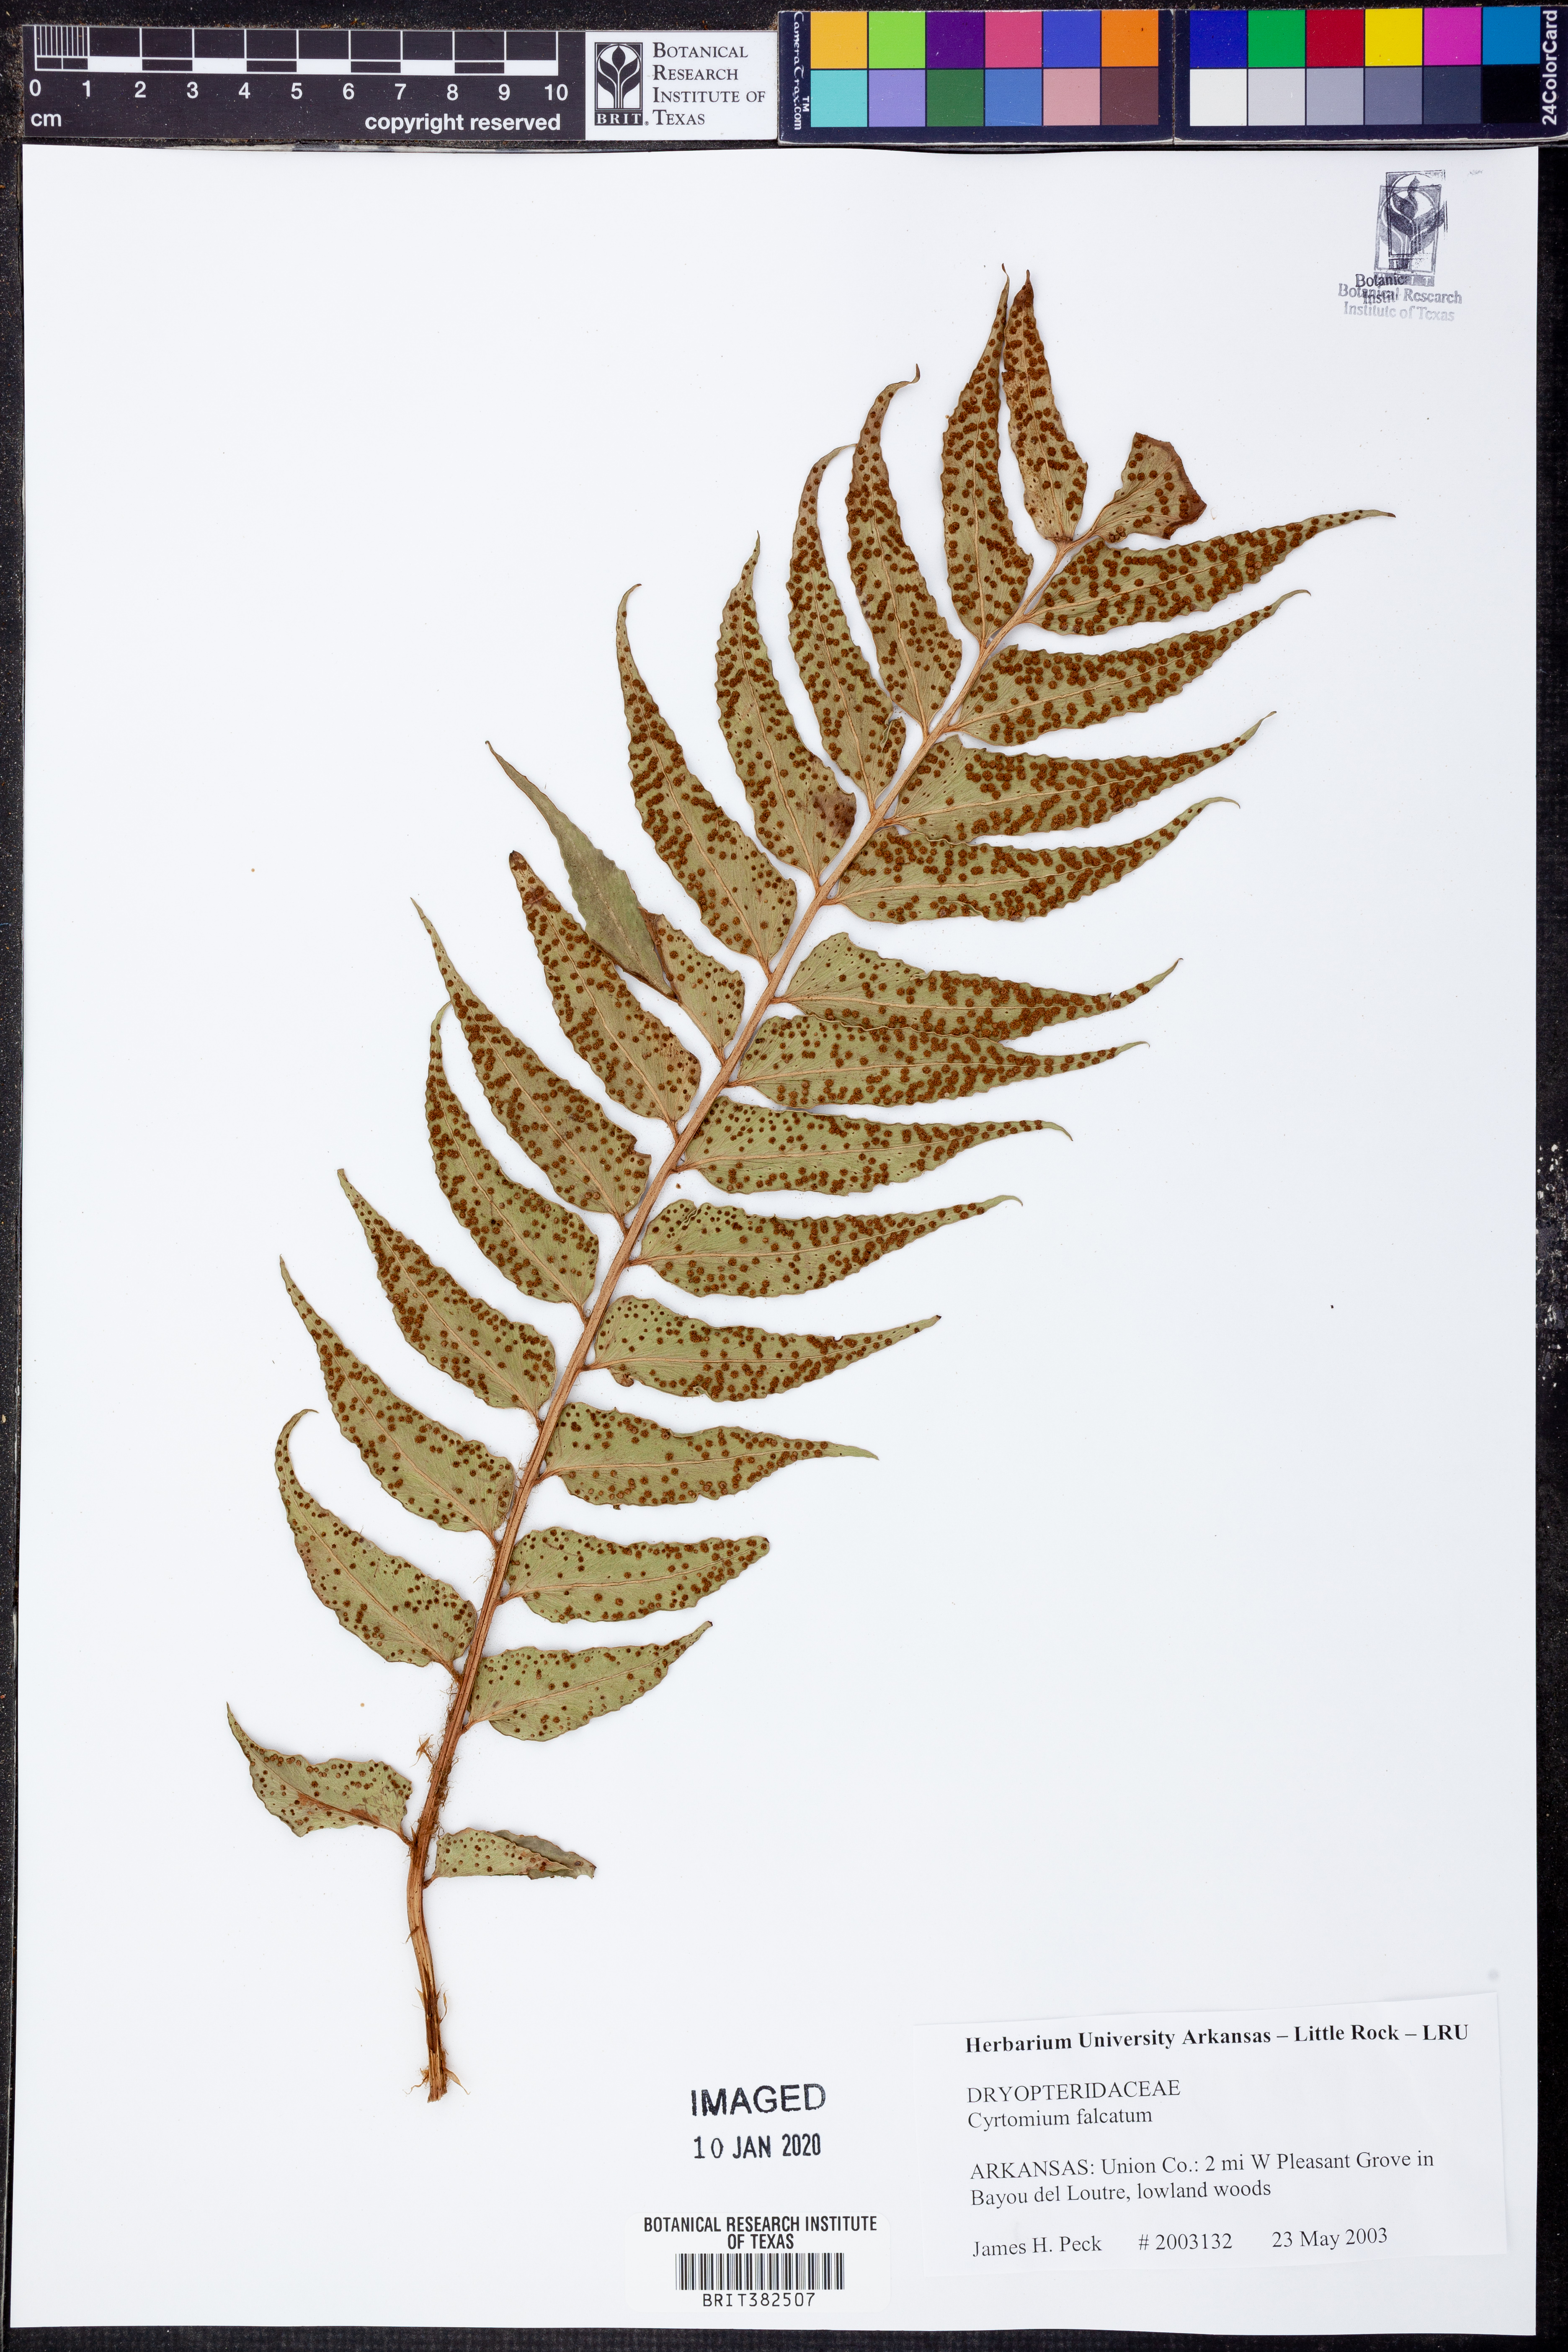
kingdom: Plantae
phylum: Tracheophyta
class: Polypodiopsida
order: Polypodiales
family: Dryopteridaceae
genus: Cyrtomium
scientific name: Cyrtomium falcatum
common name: House holly-fern
